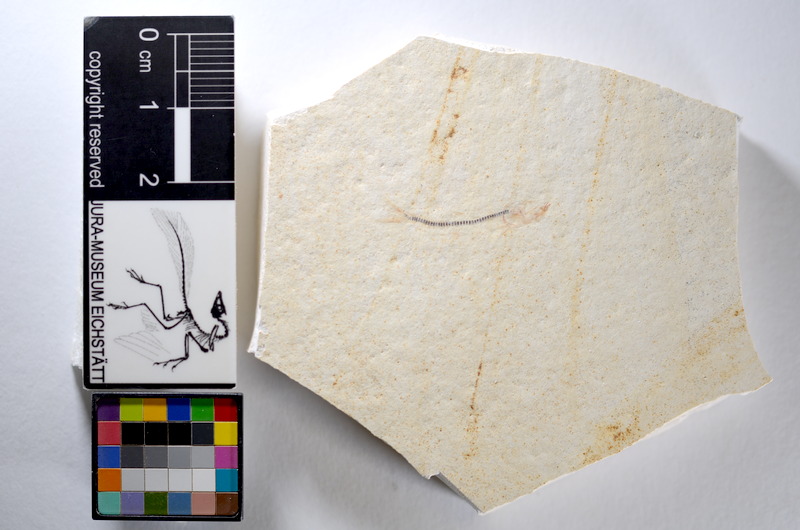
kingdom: Animalia
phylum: Chordata
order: Salmoniformes
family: Orthogonikleithridae
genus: Orthogonikleithrus
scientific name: Orthogonikleithrus hoelli
